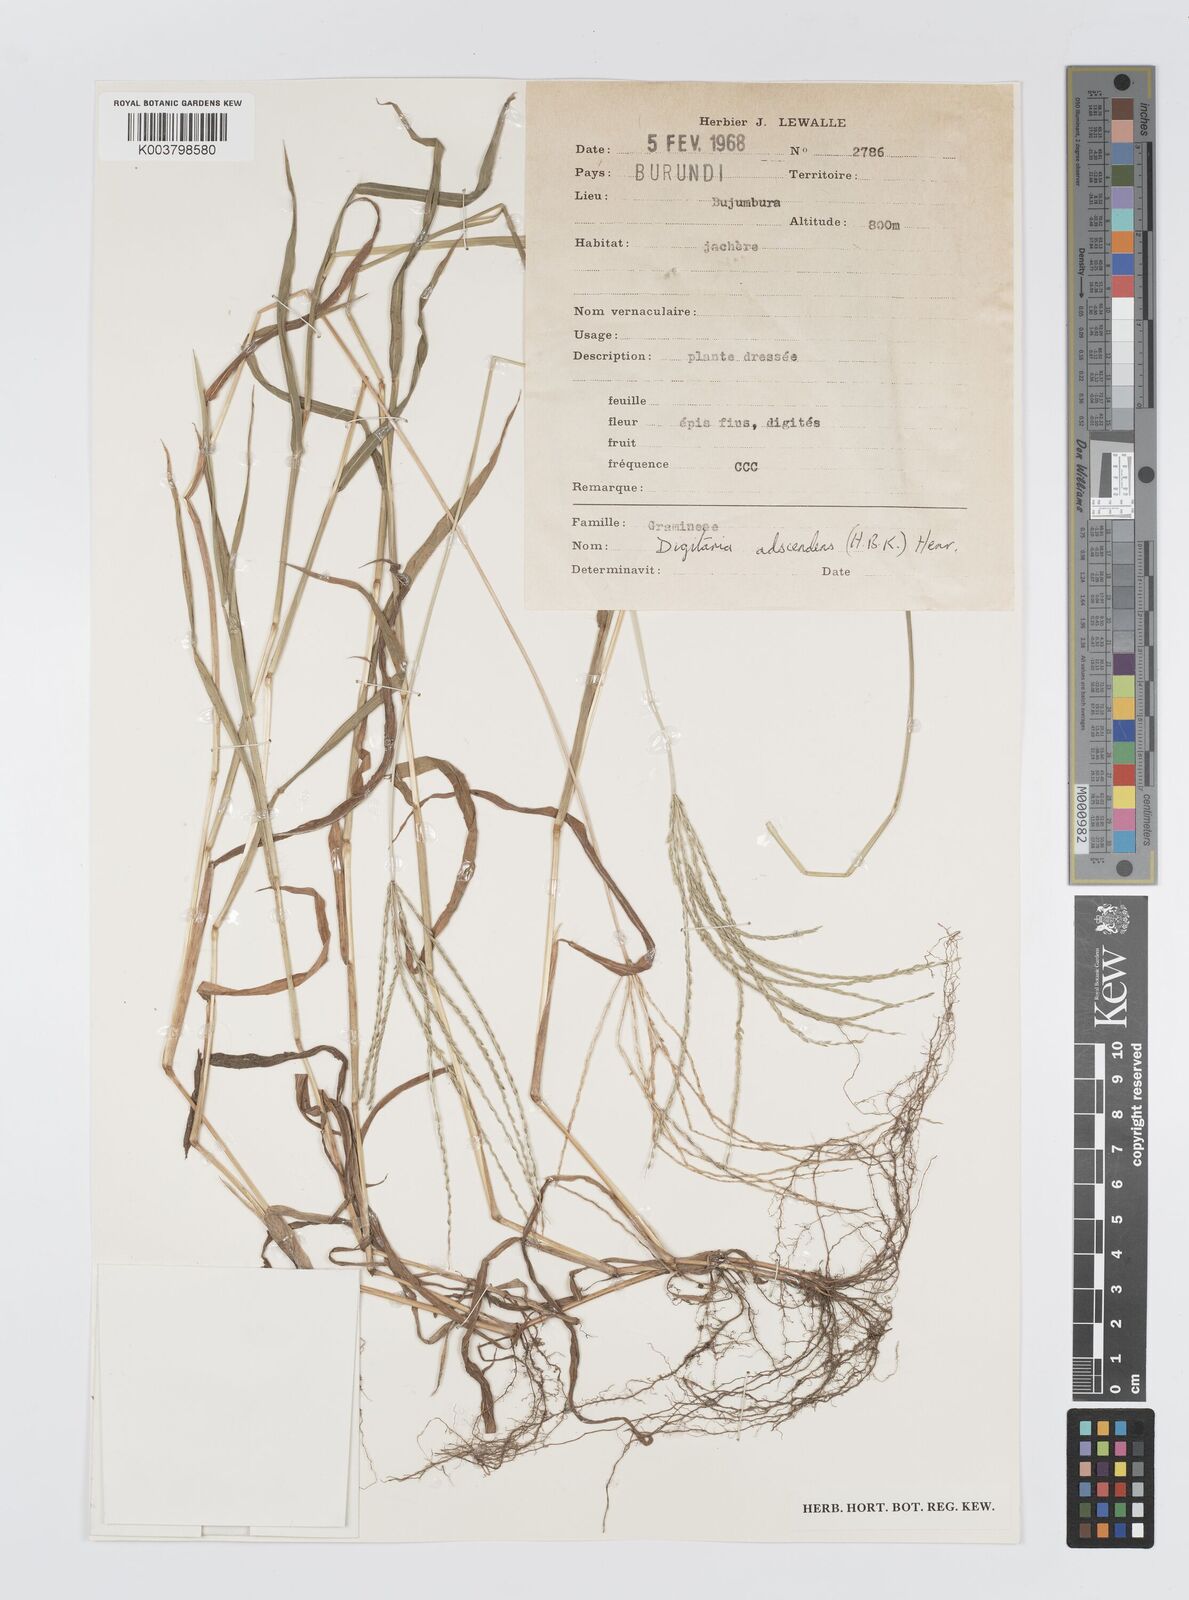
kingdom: Plantae
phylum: Tracheophyta
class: Liliopsida
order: Poales
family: Poaceae
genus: Digitaria
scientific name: Digitaria nuda
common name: Naked crabgrass
